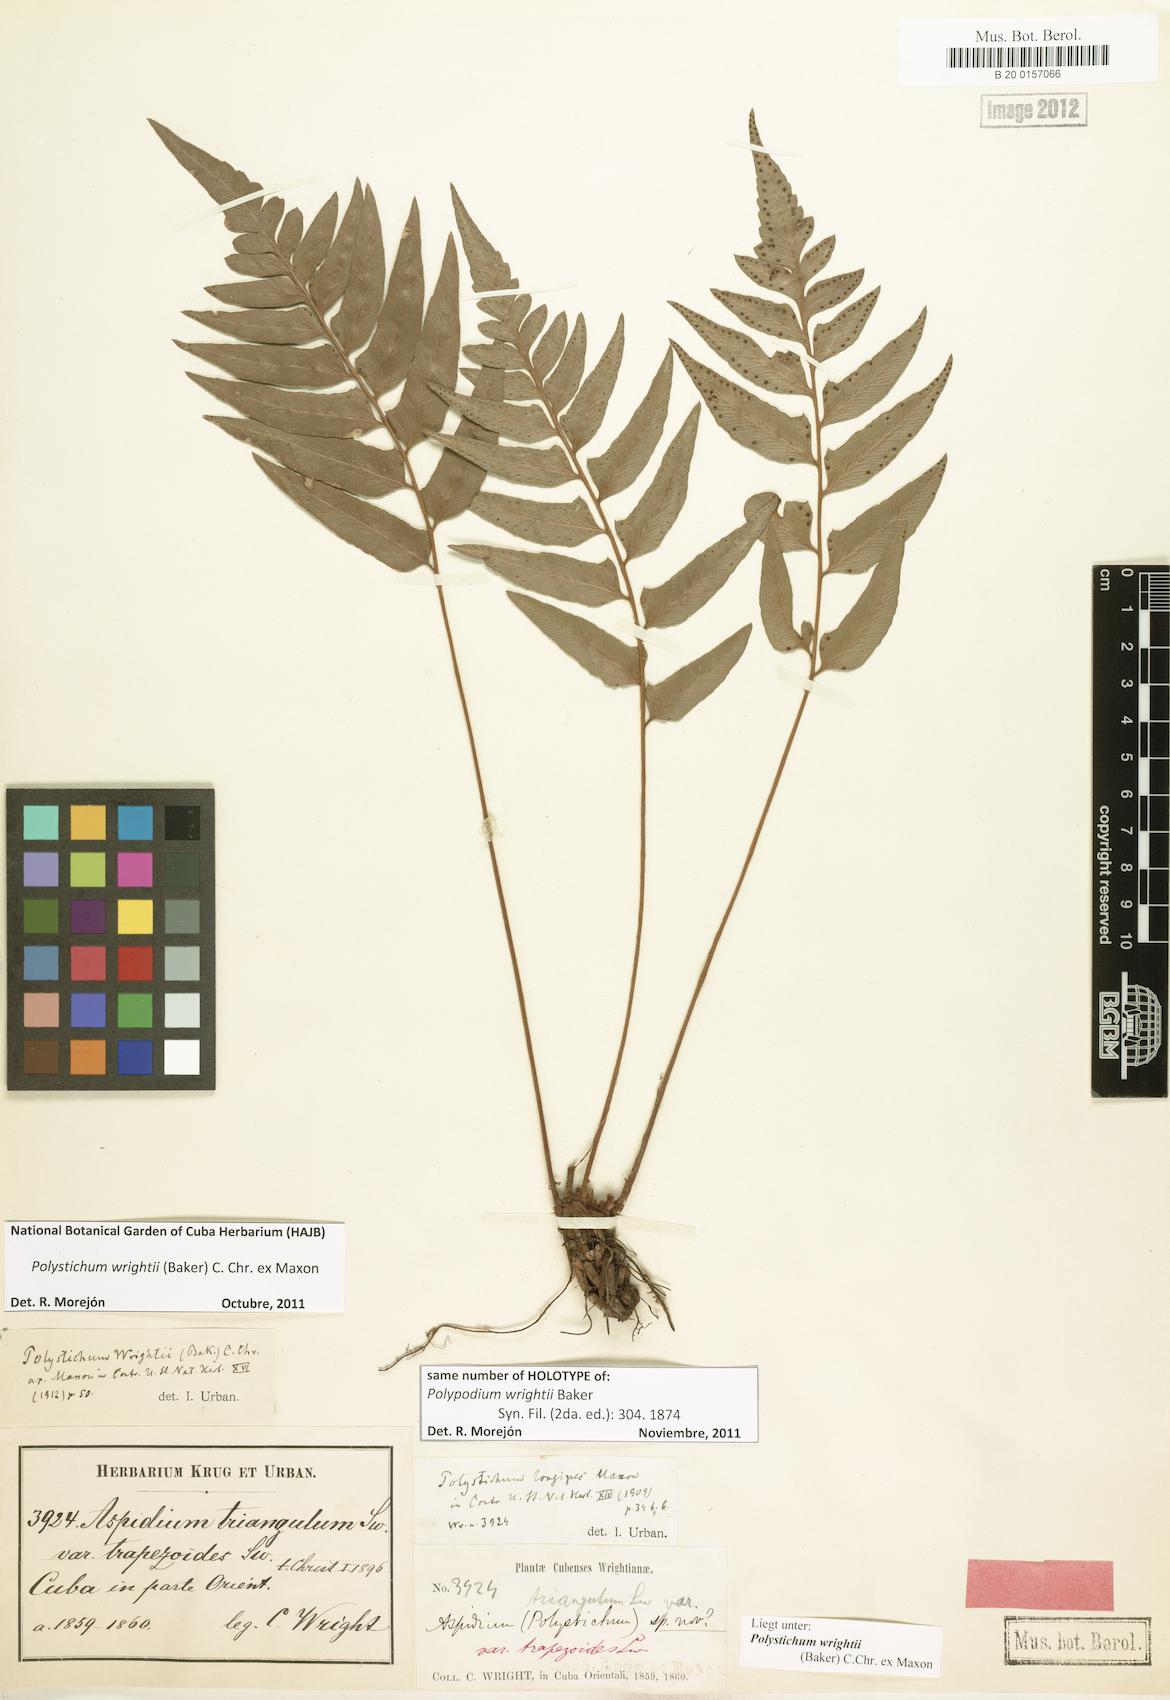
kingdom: Plantae
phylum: Tracheophyta
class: Polypodiopsida
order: Polypodiales
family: Dryopteridaceae
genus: Polystichum
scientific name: Polystichum wrightii
